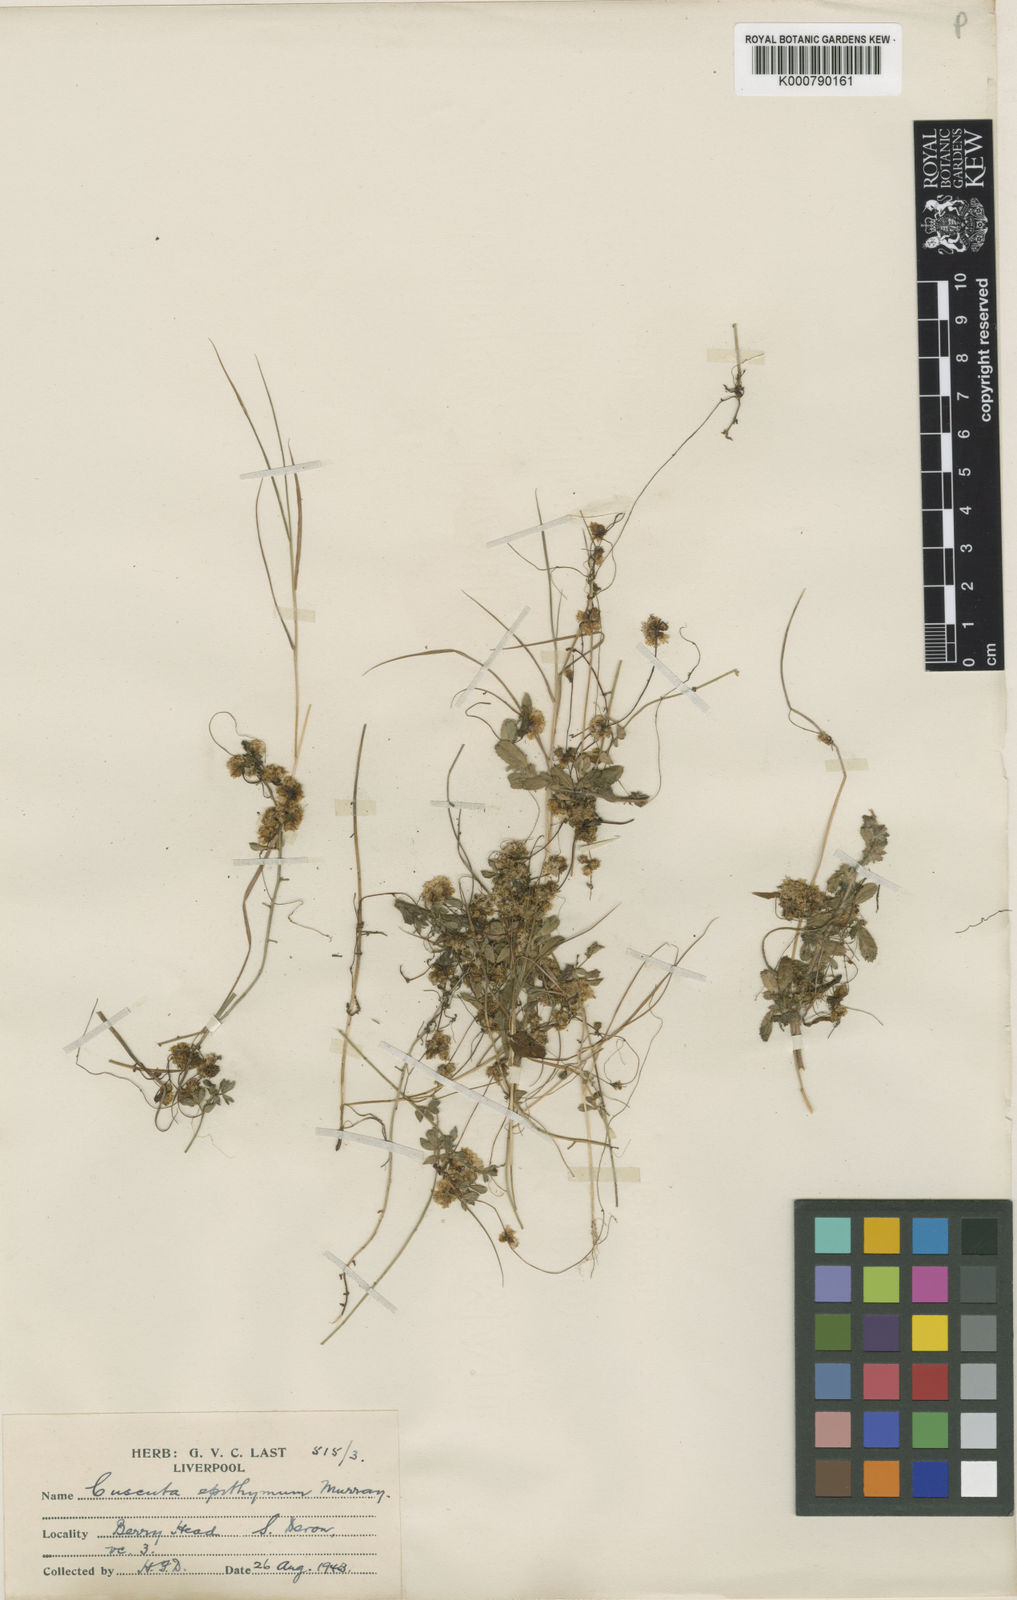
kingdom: Plantae
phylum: Tracheophyta
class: Magnoliopsida
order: Solanales
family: Convolvulaceae
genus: Cuscuta
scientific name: Cuscuta epithymum
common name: Clover dodder
